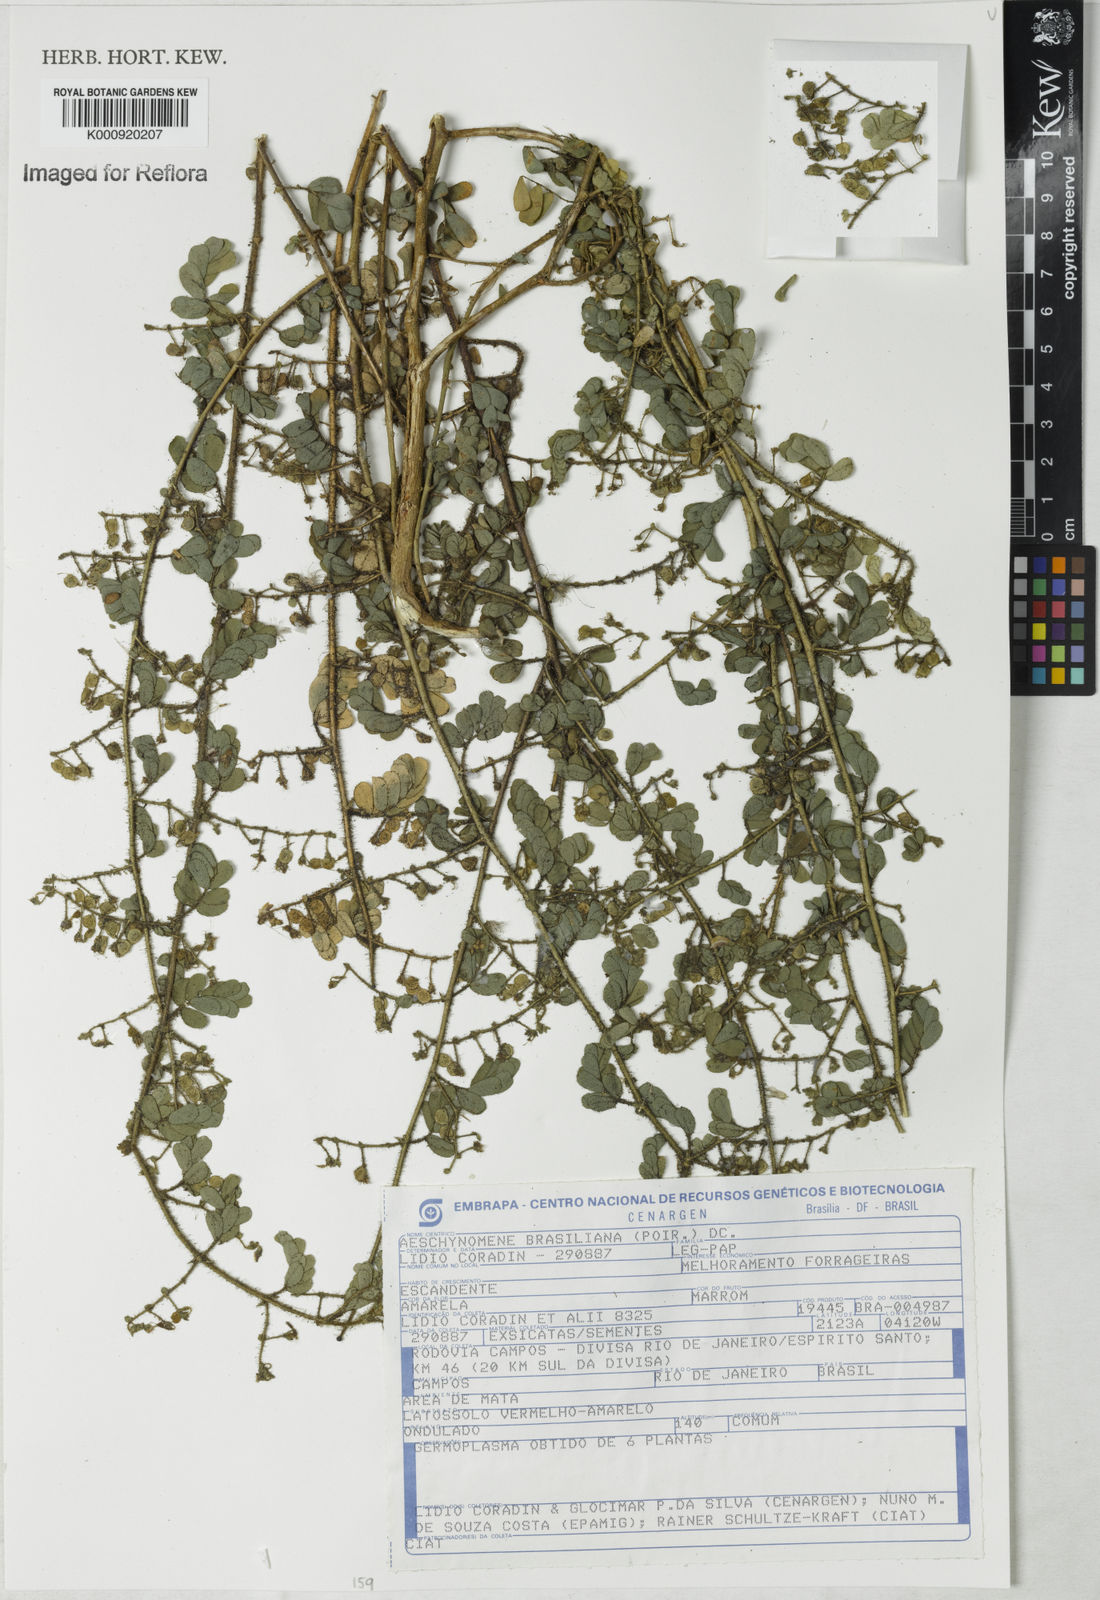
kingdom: Plantae
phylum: Tracheophyta
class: Magnoliopsida
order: Fabales
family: Fabaceae
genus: Ctenodon
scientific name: Ctenodon brasilianus
